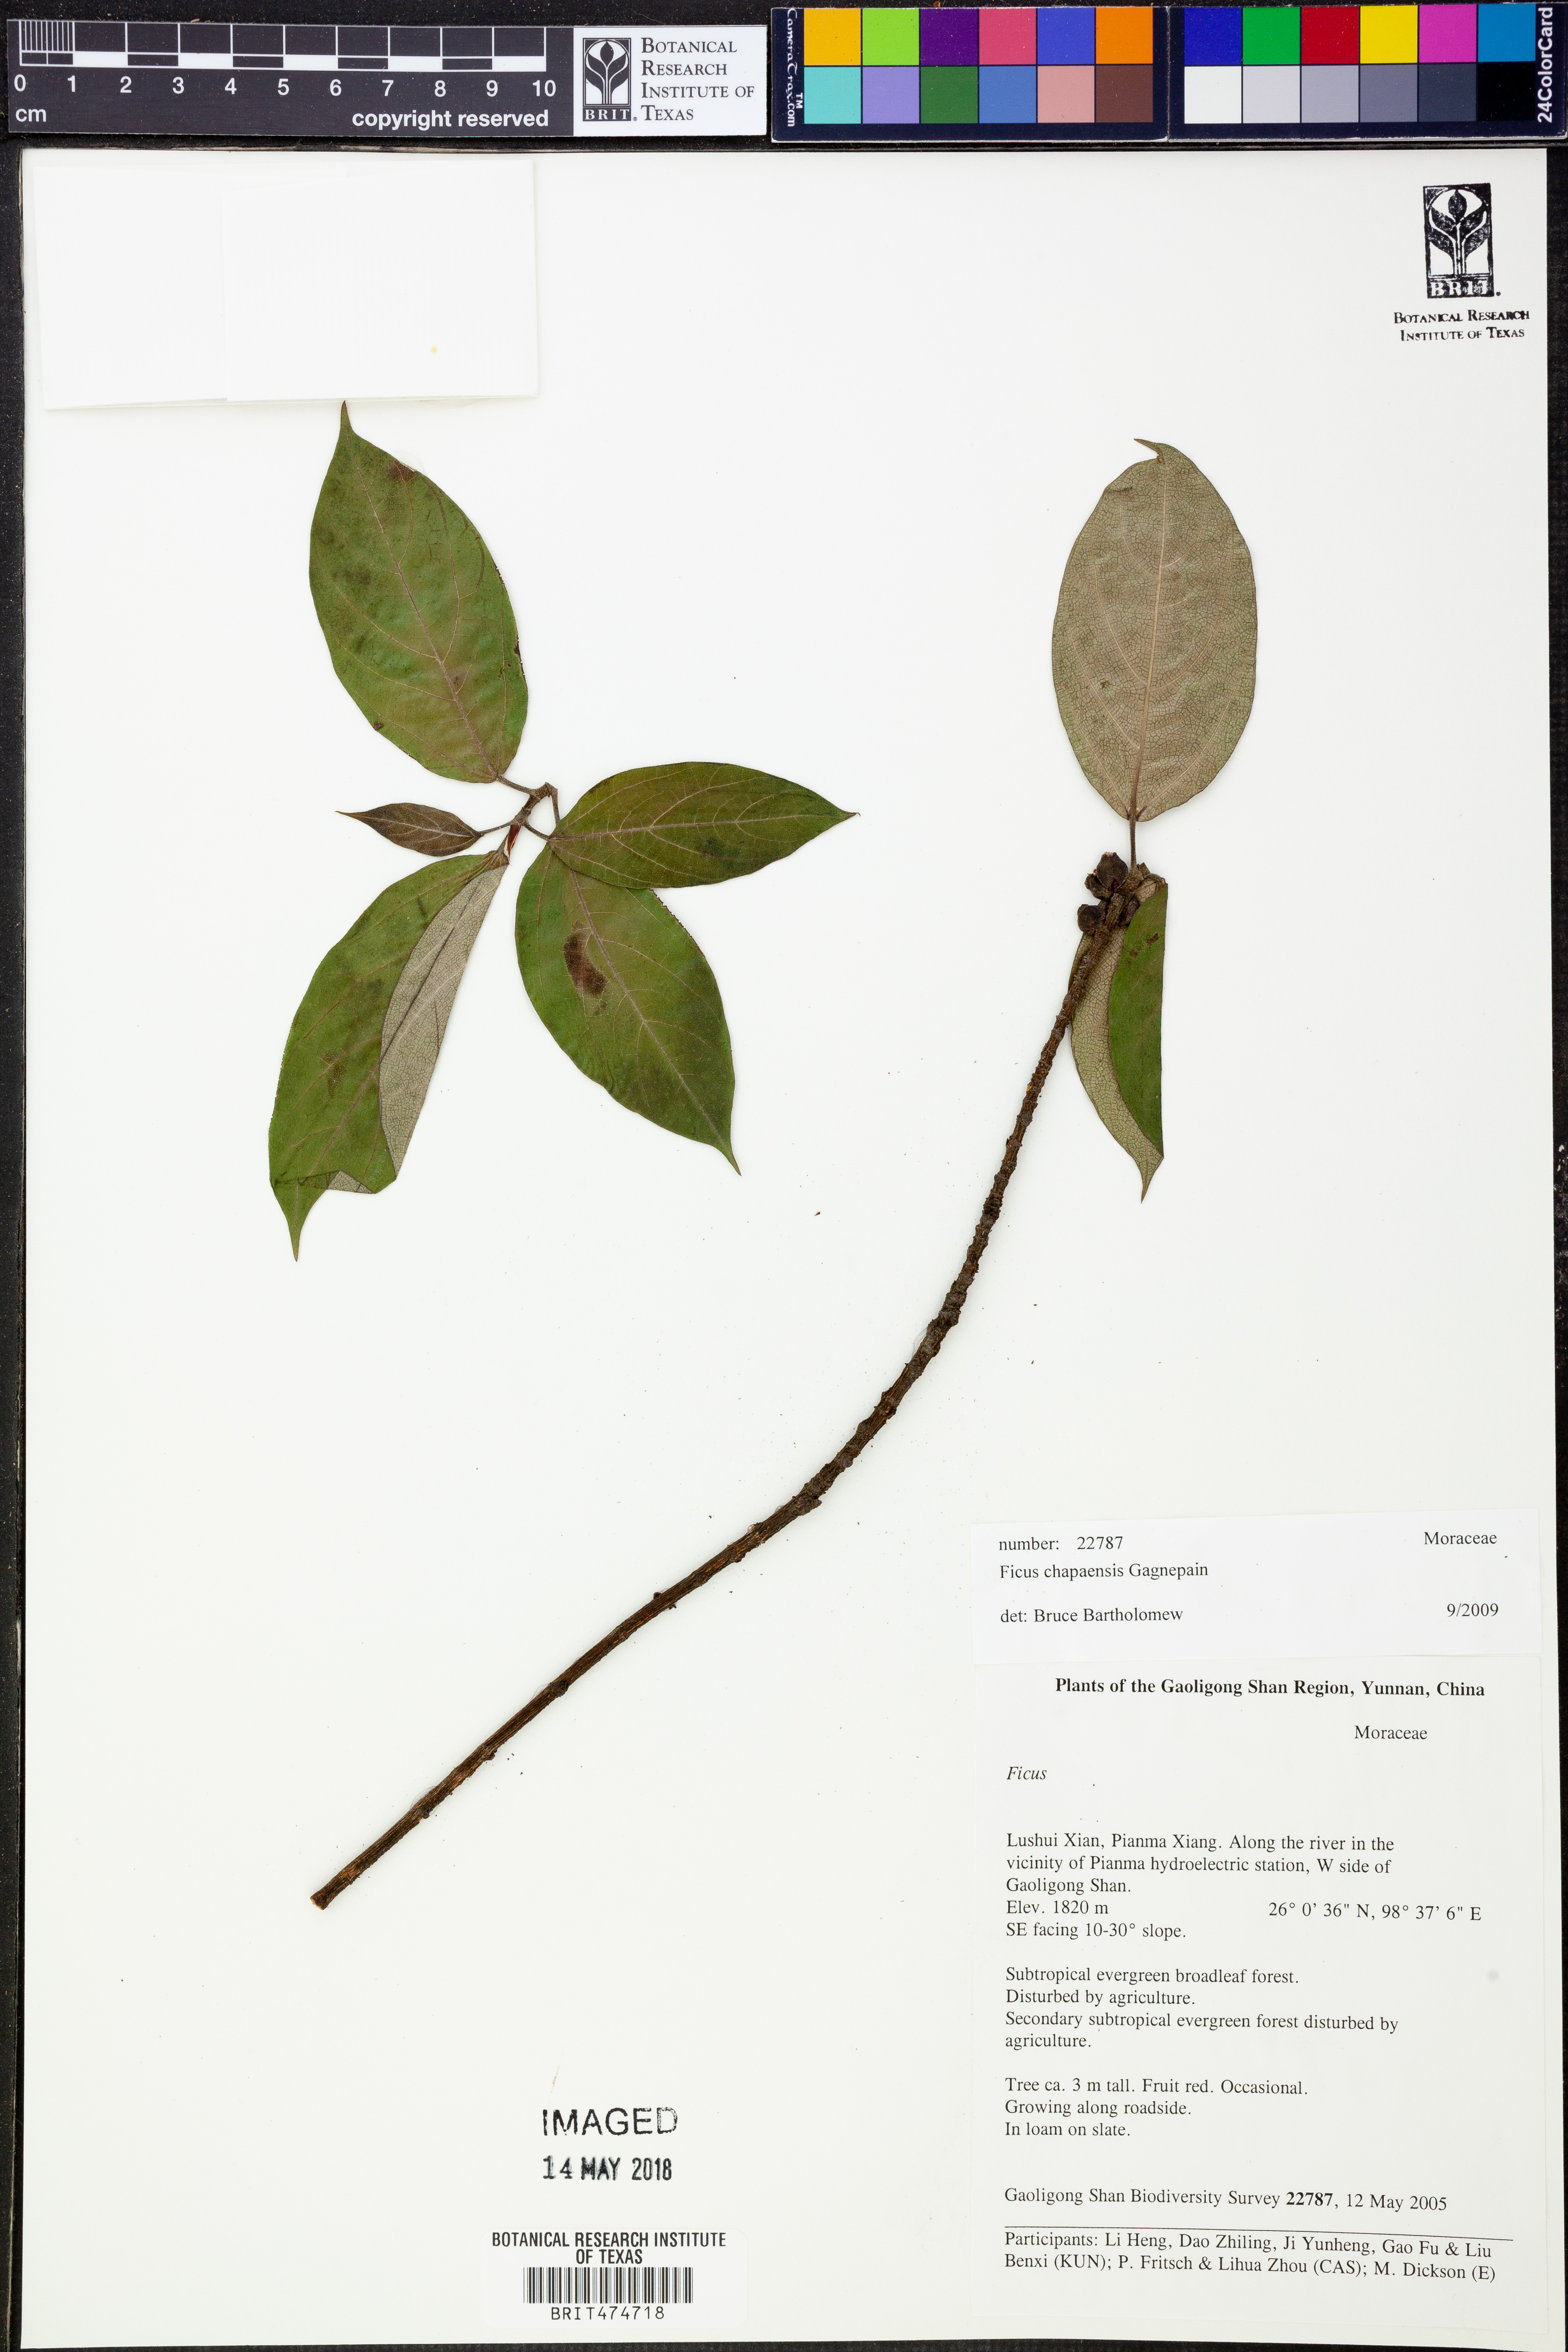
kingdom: Plantae
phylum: Tracheophyta
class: Magnoliopsida
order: Rosales
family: Moraceae
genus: Ficus
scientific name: Ficus chapaensis
